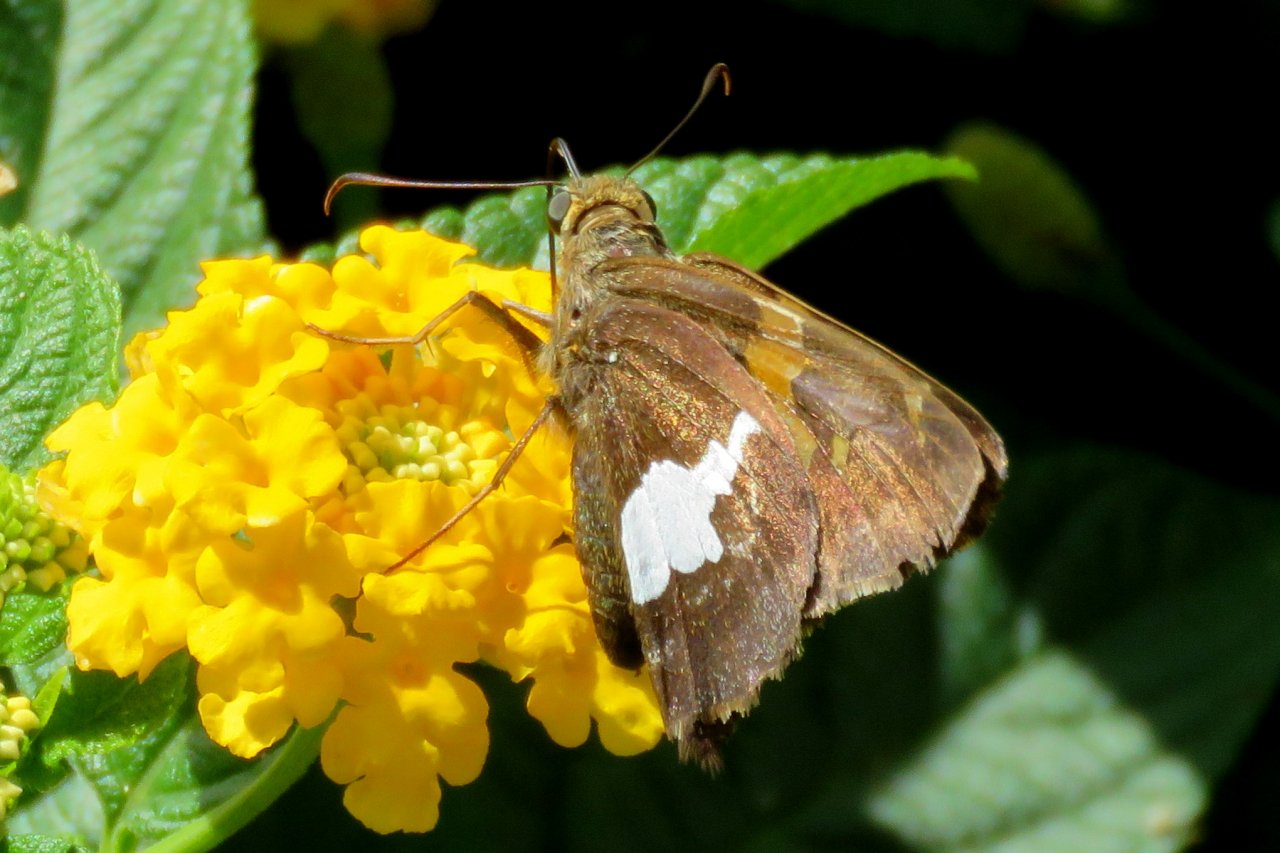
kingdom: Animalia
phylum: Arthropoda
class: Insecta
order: Lepidoptera
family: Hesperiidae
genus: Epargyreus
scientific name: Epargyreus clarus
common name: Silver-spotted Skipper
